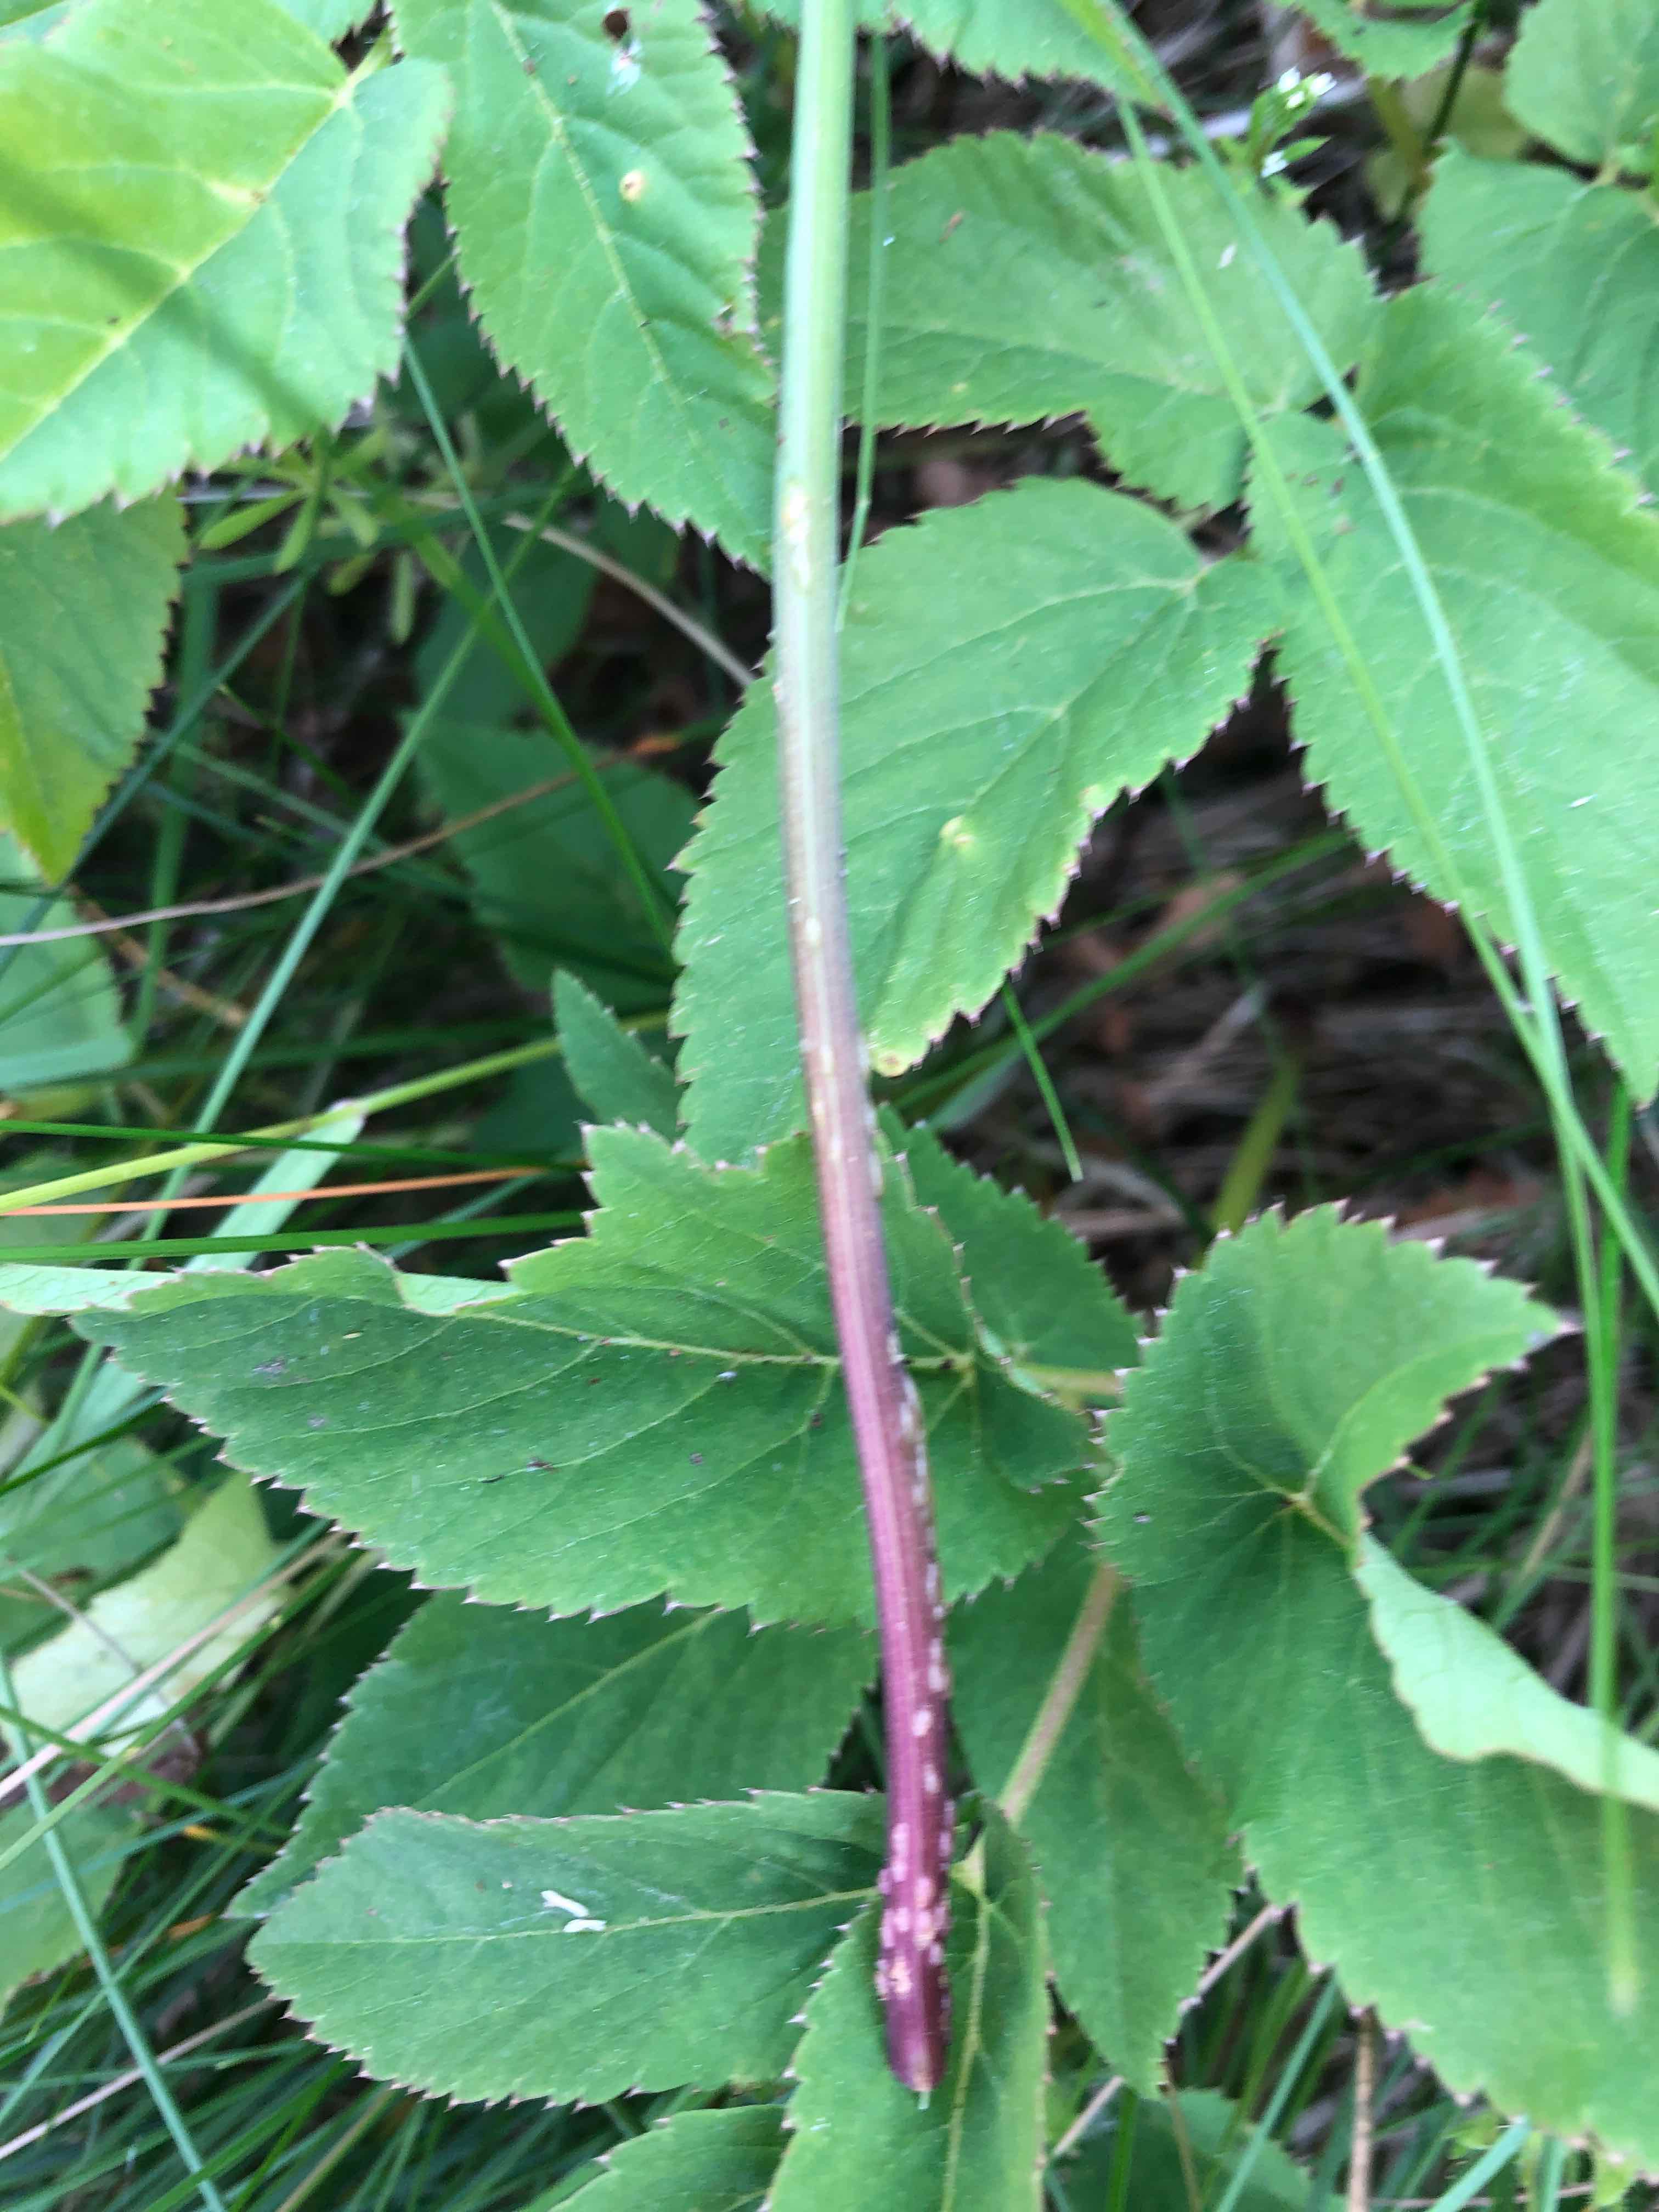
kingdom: Fungi
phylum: Ascomycota
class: Taphrinomycetes
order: Taphrinales
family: Taphrinaceae
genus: Protomyces
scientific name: Protomyces macrosporus
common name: skvalderkål-vablesæk
